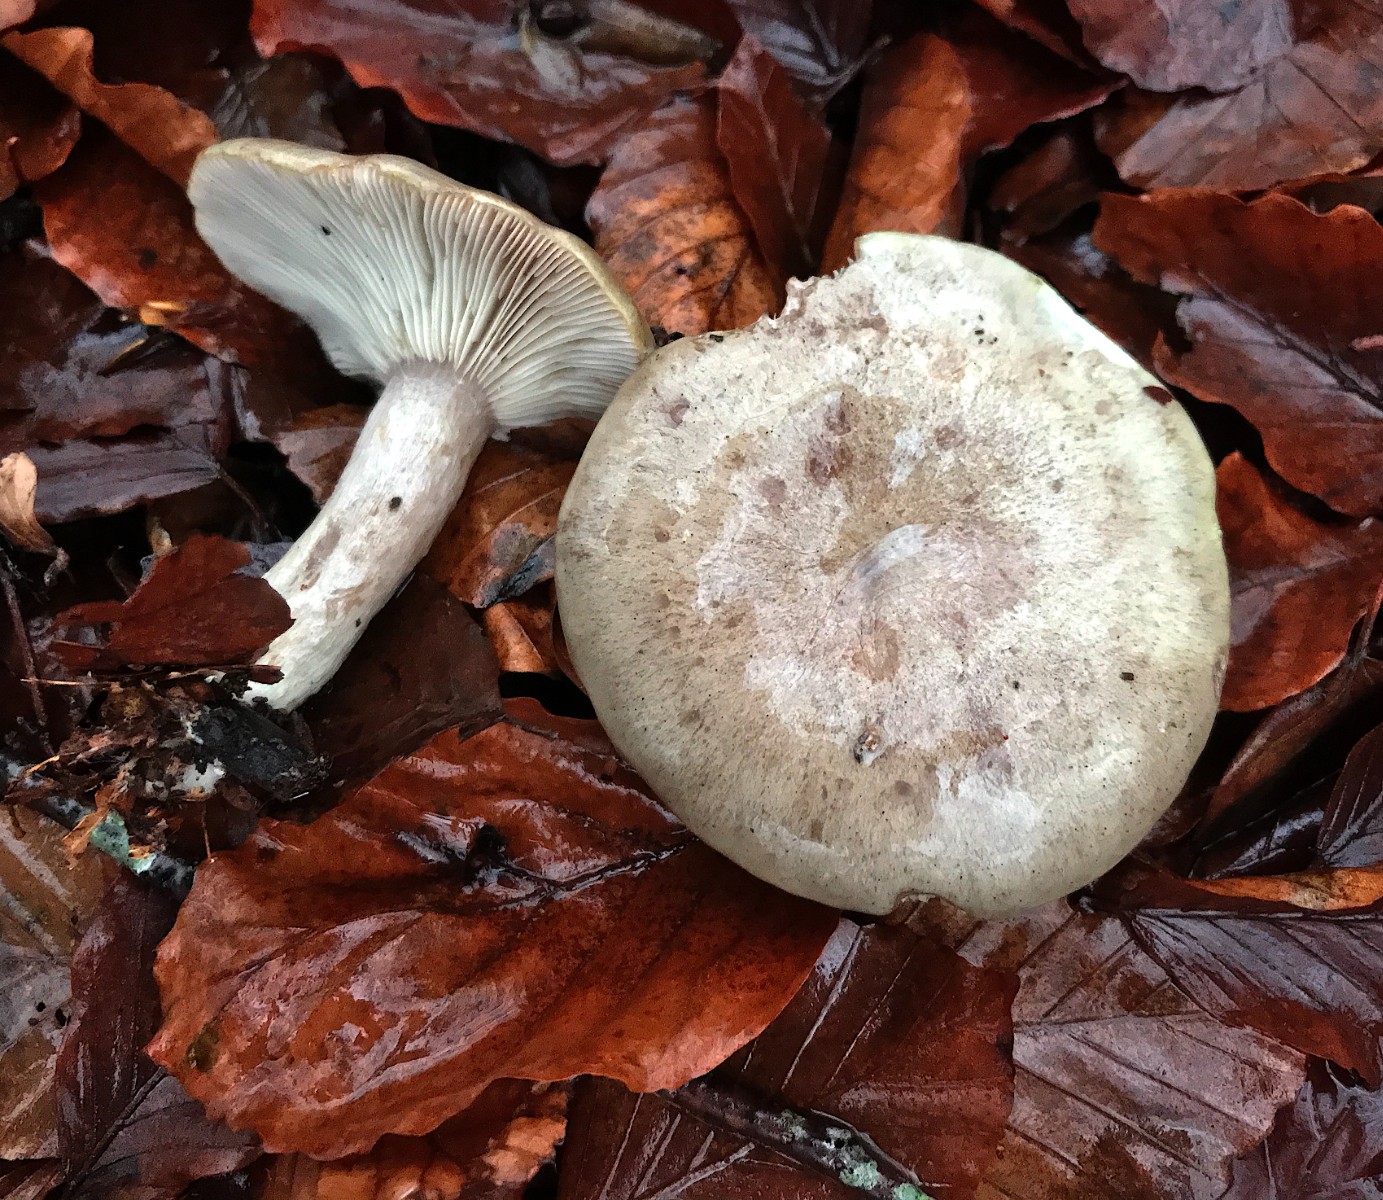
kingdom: Fungi
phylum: Basidiomycota
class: Agaricomycetes
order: Russulales
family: Russulaceae
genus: Lactarius
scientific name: Lactarius blennius
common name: dråbeplettet mælkehat
